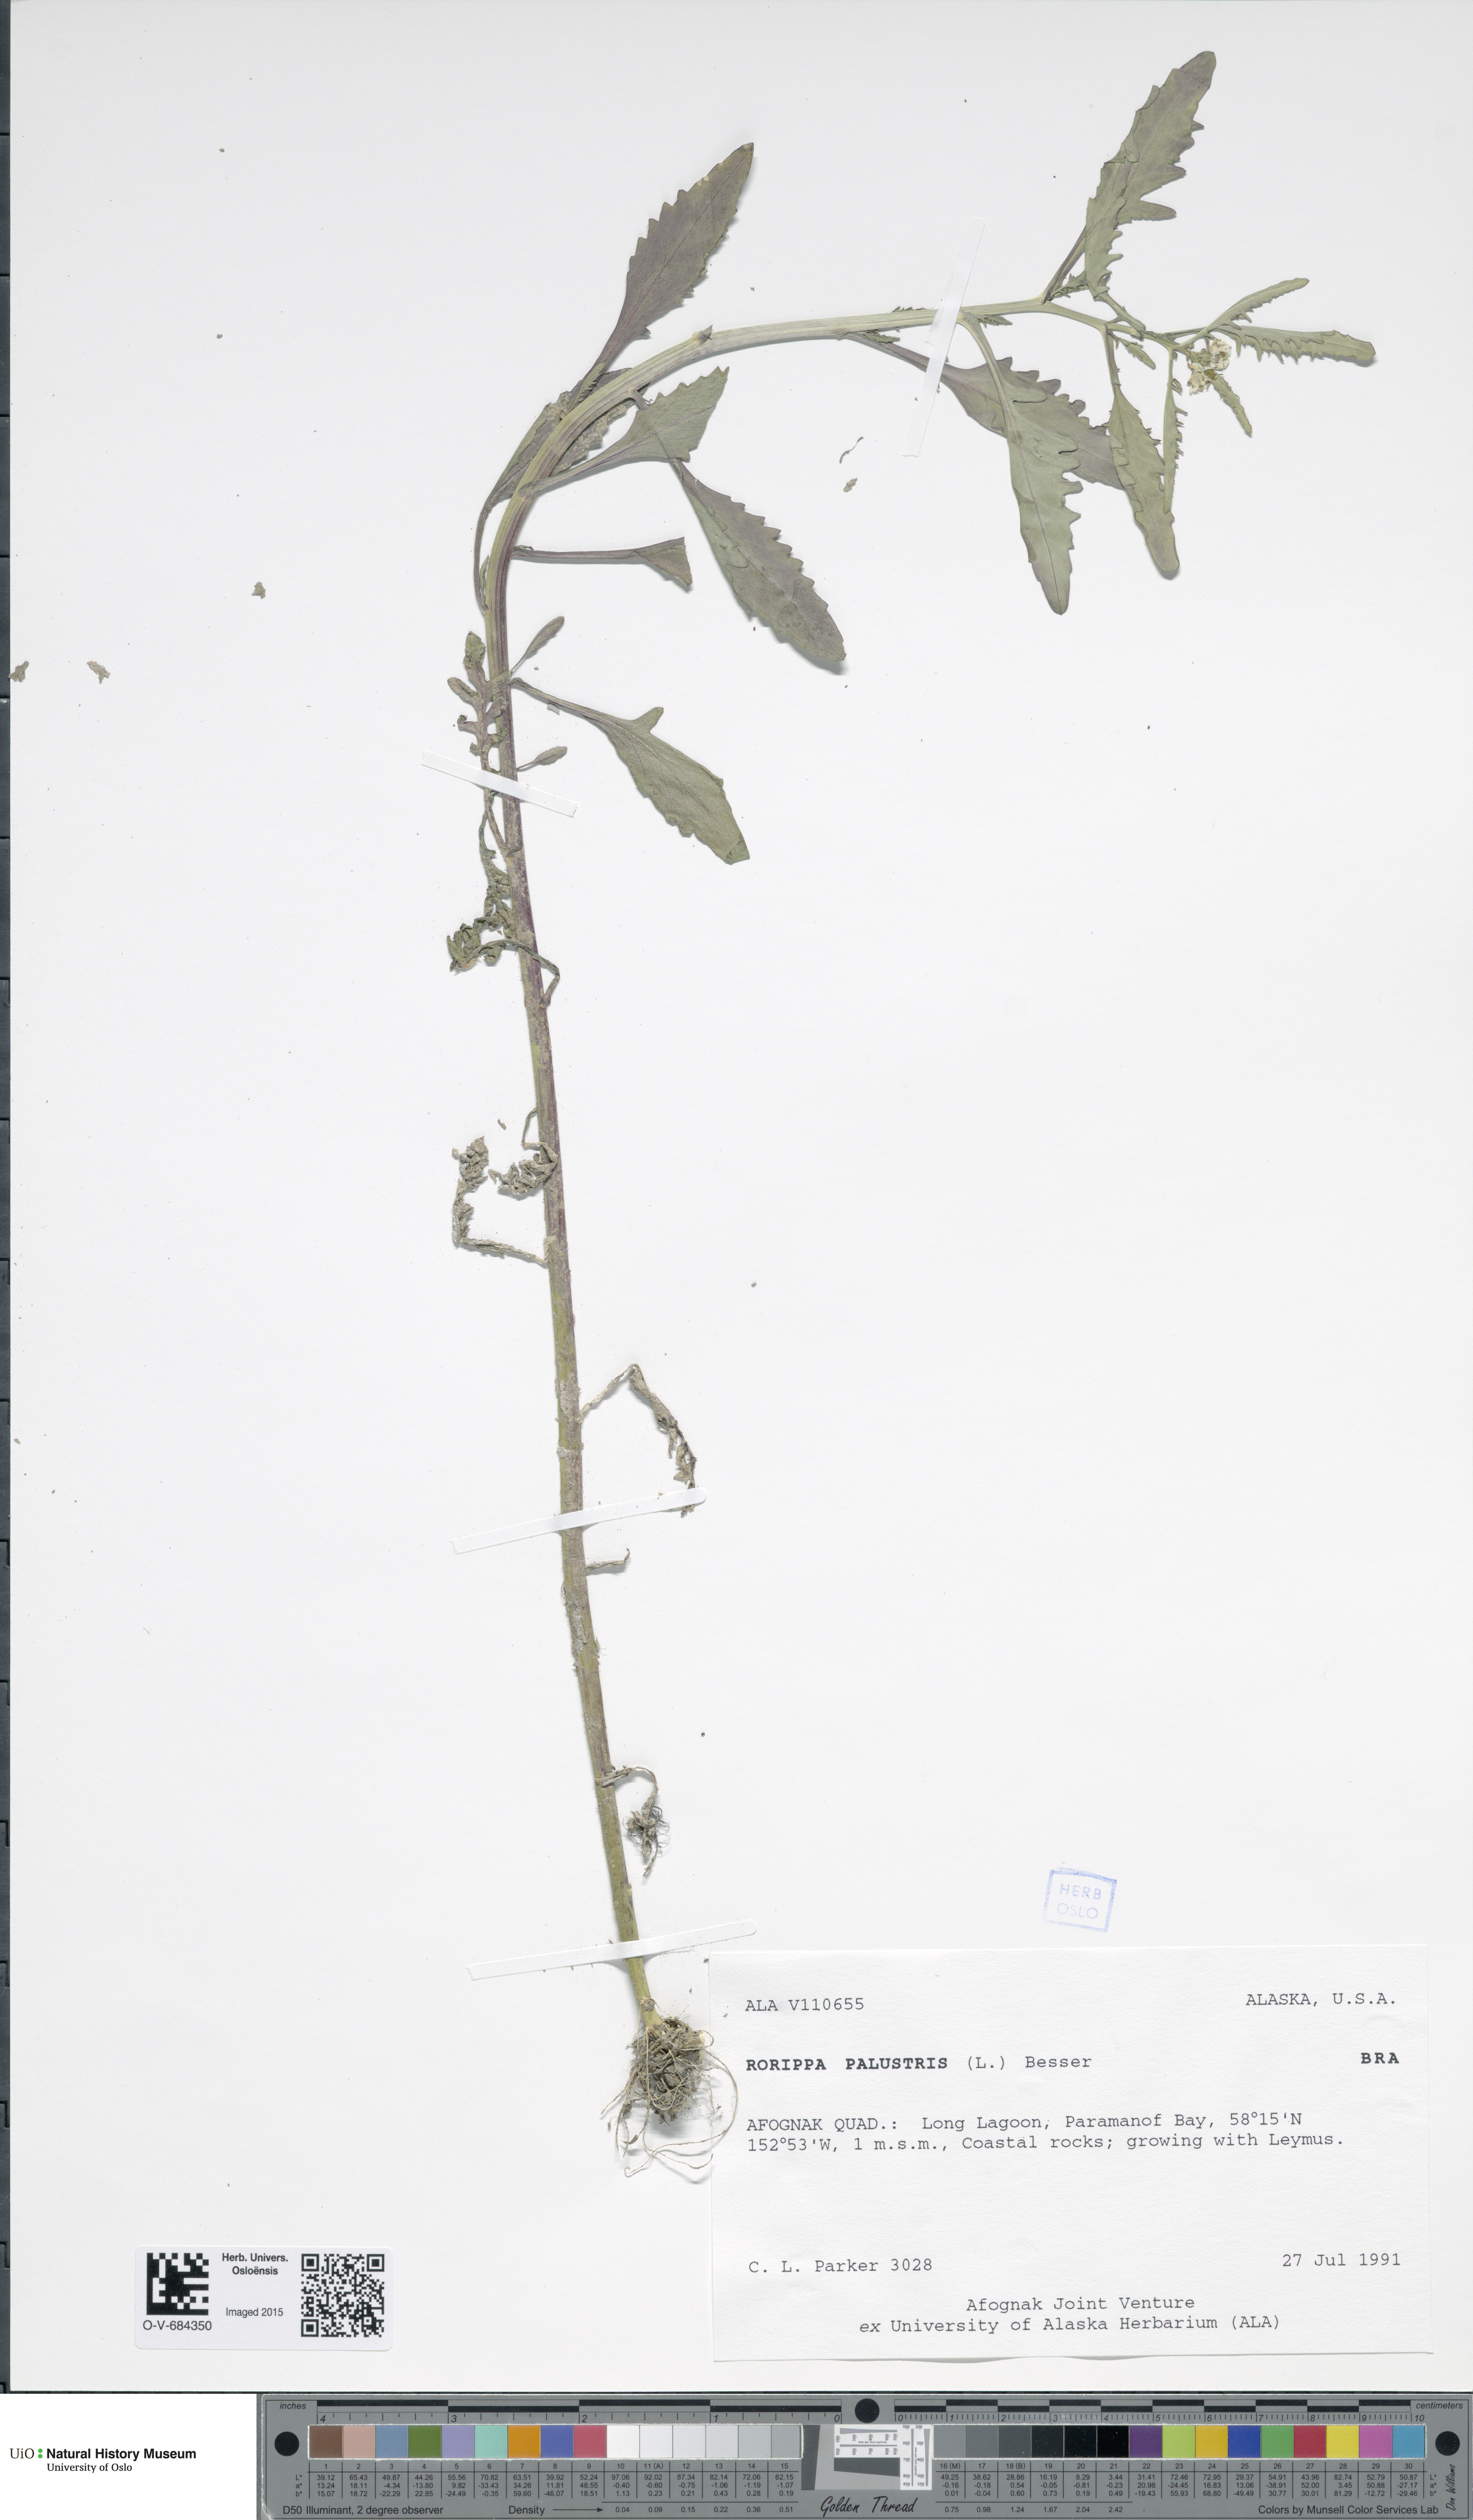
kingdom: Plantae
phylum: Tracheophyta
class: Magnoliopsida
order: Brassicales
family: Brassicaceae
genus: Rorippa
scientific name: Rorippa palustris
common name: Marsh yellow-cress
